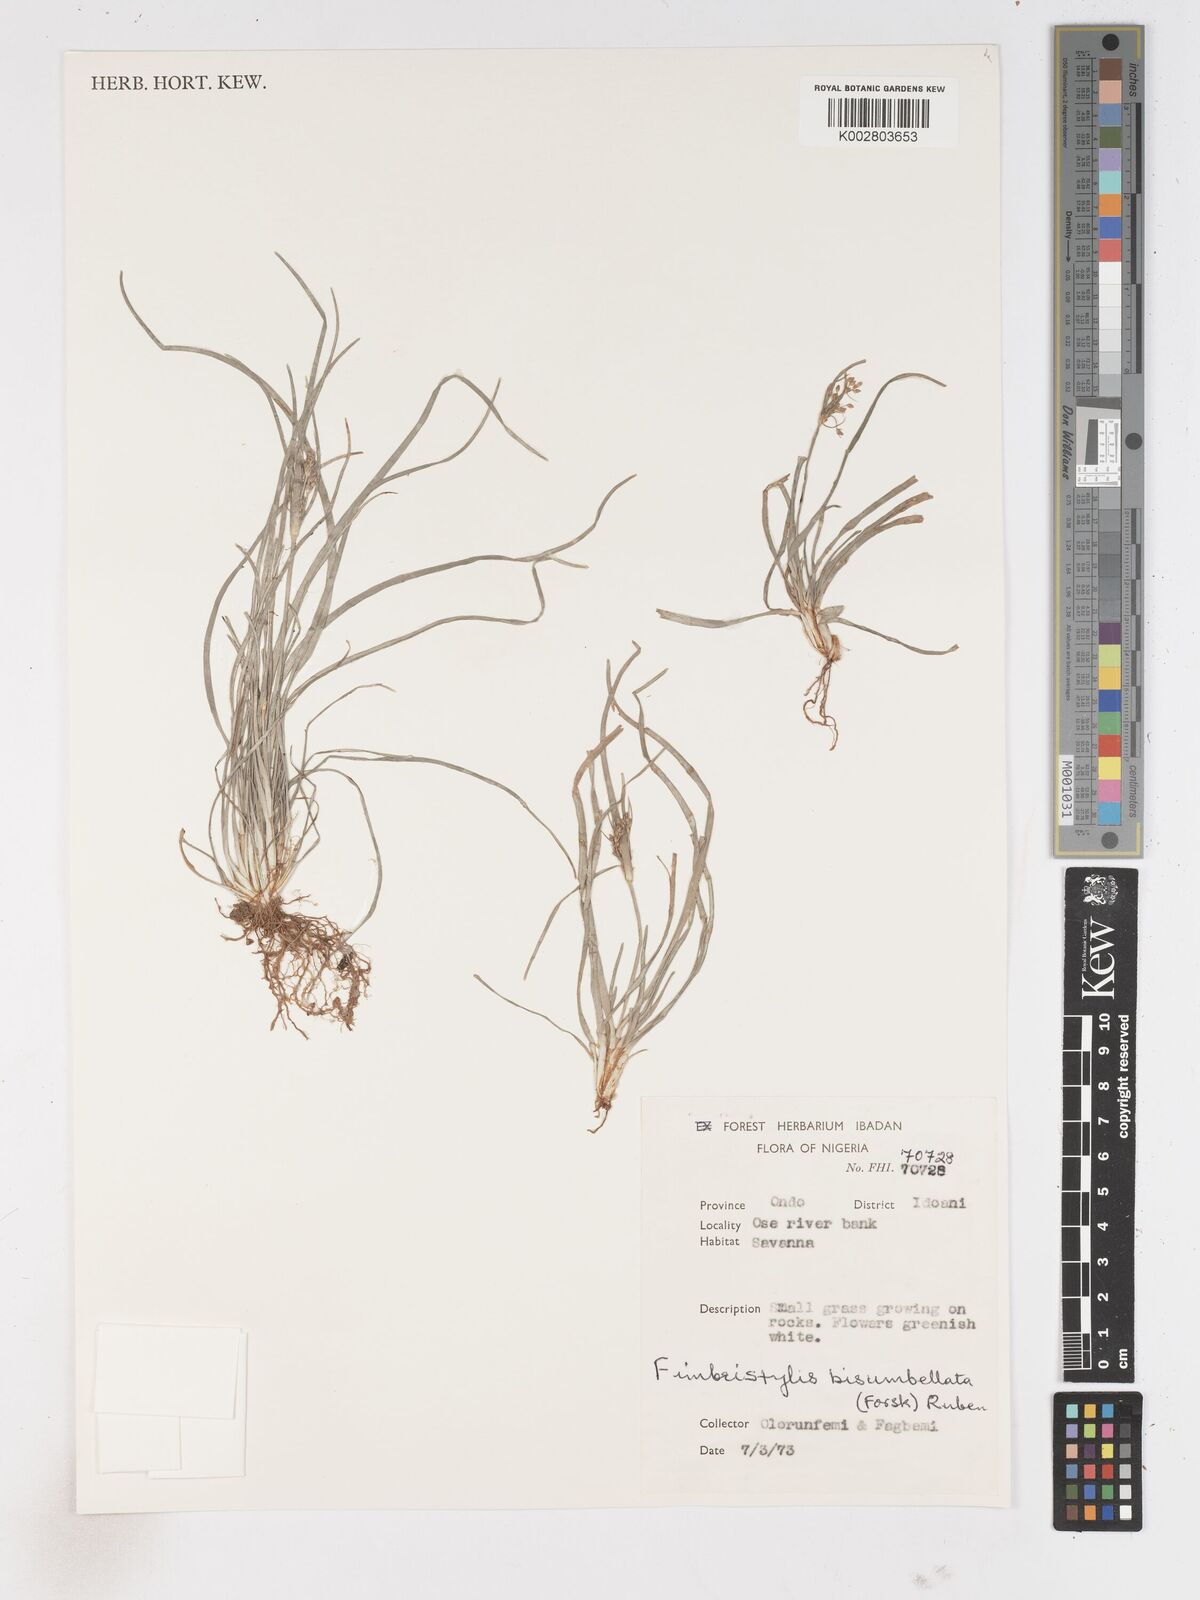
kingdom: Plantae
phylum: Tracheophyta
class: Liliopsida
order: Poales
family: Cyperaceae
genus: Fimbristylis
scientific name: Fimbristylis bisumbellata
